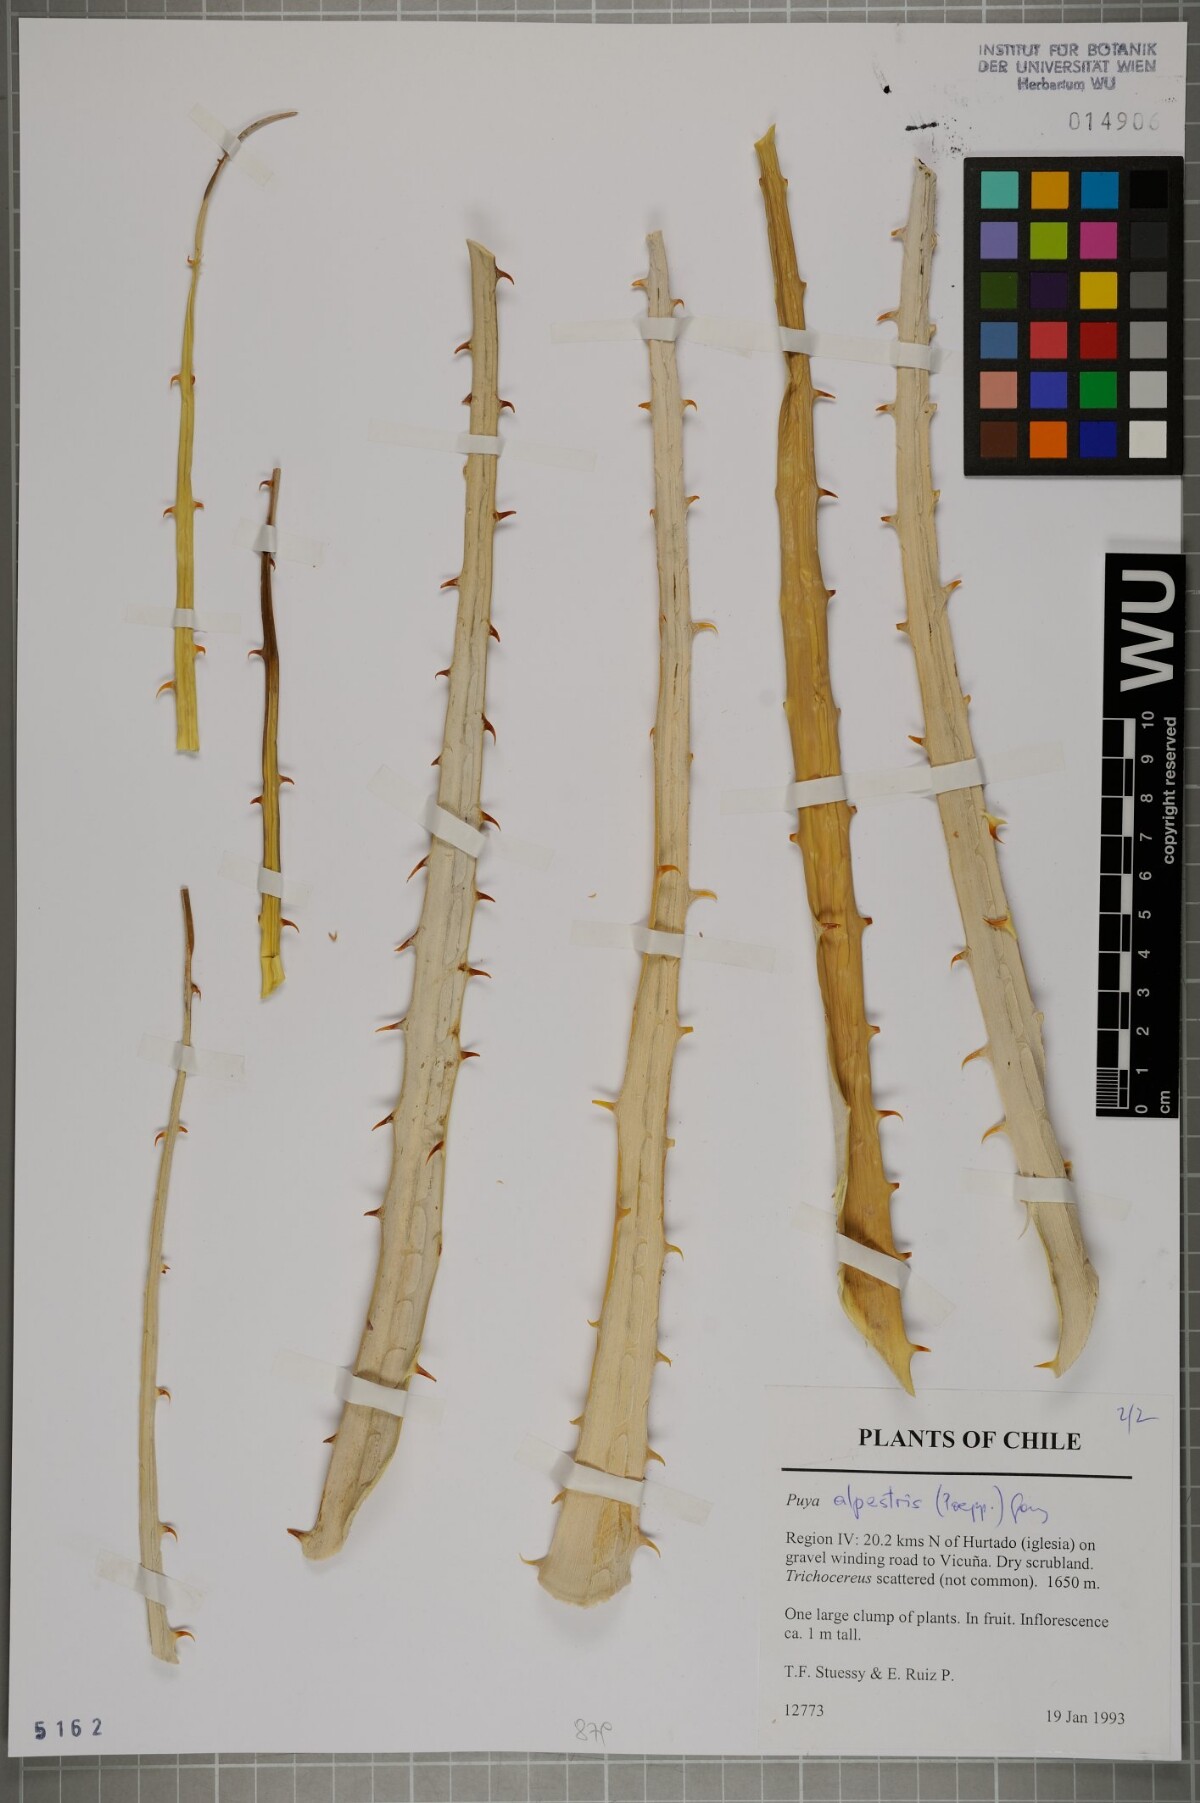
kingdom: Plantae
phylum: Tracheophyta
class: Liliopsida
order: Poales
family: Bromeliaceae
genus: Puya
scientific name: Puya alpestris
